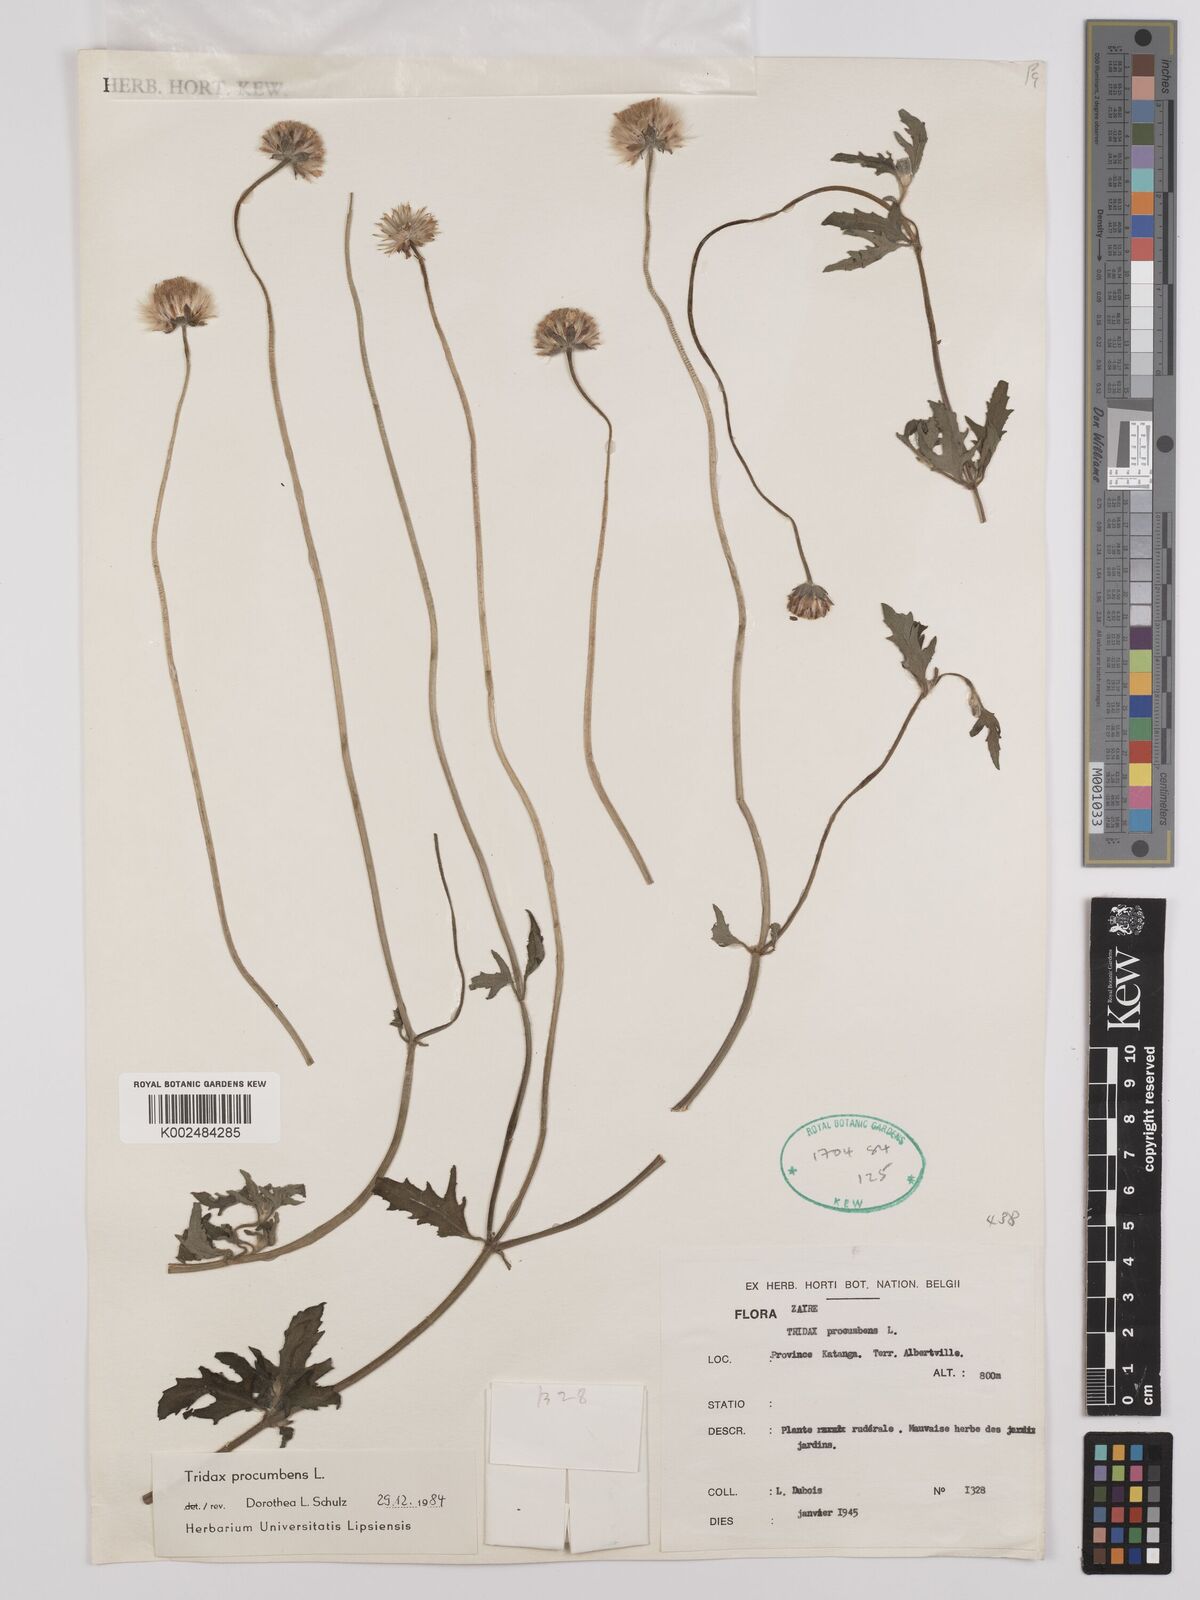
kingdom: Plantae
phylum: Tracheophyta
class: Magnoliopsida
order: Asterales
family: Asteraceae
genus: Tridax
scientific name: Tridax procumbens
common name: Coatbuttons
